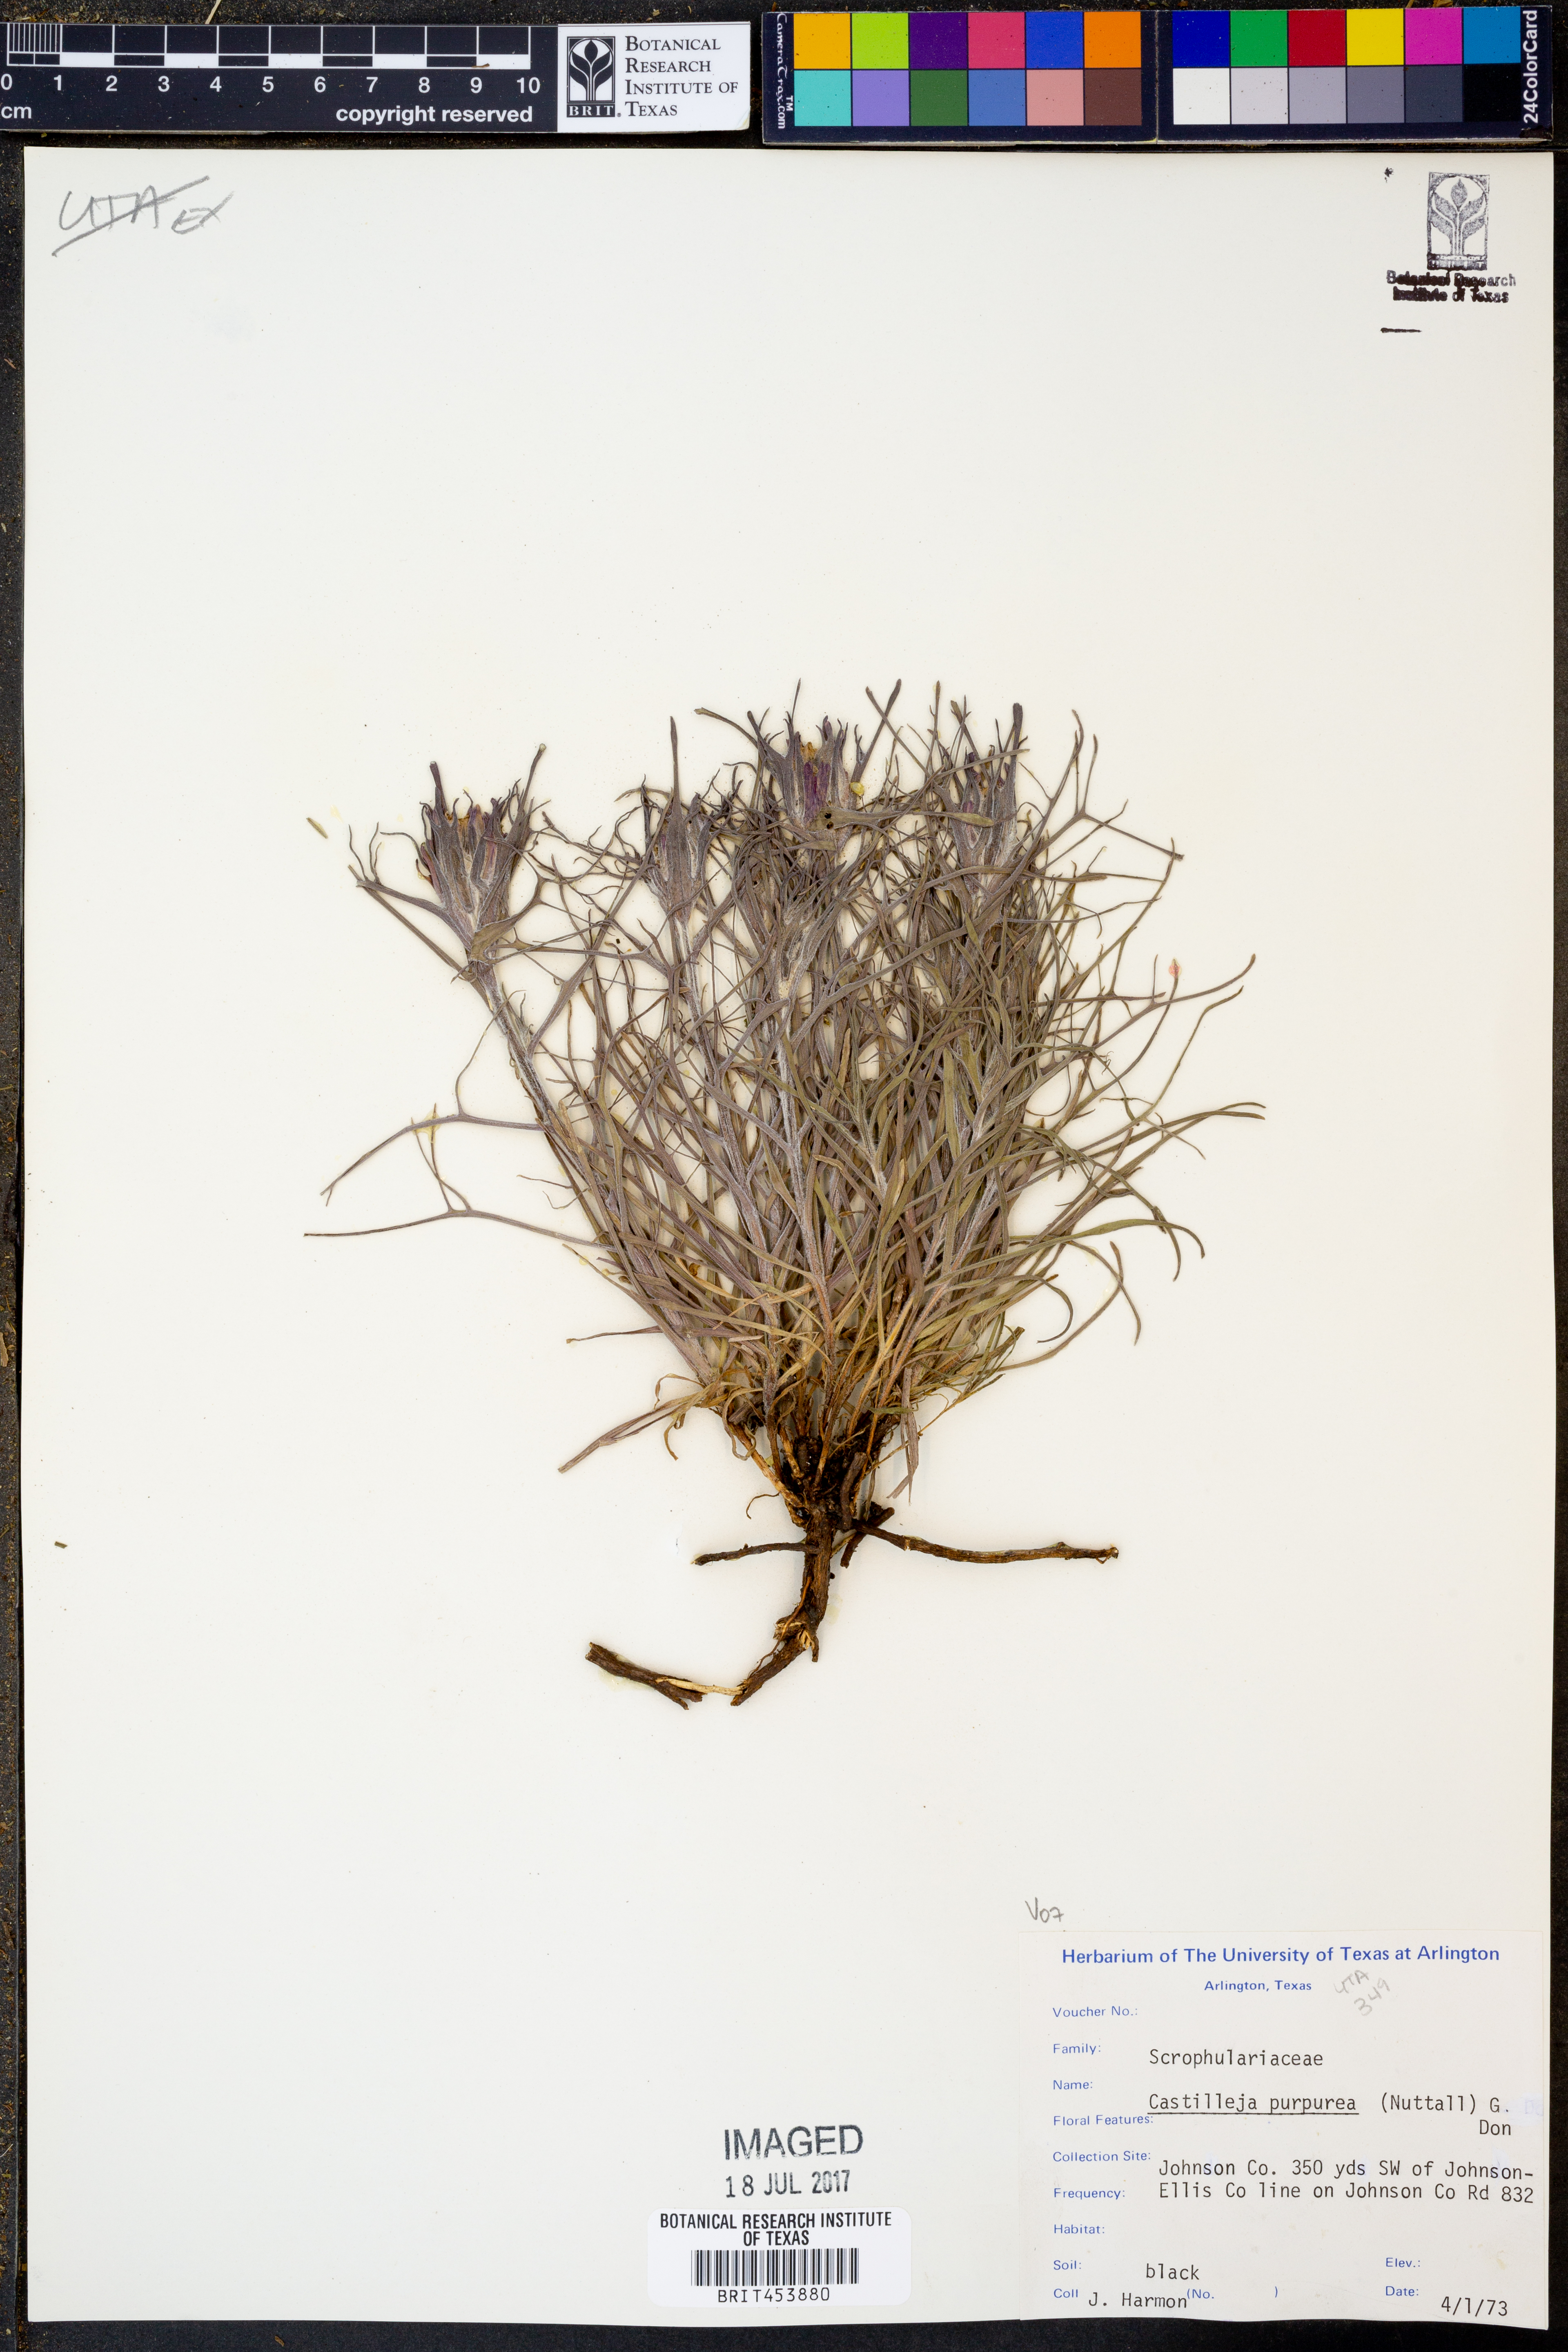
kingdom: Plantae
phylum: Tracheophyta
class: Magnoliopsida
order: Lamiales
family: Orobanchaceae
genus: Castilleja
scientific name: Castilleja purpurea
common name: Plains paintbrush
